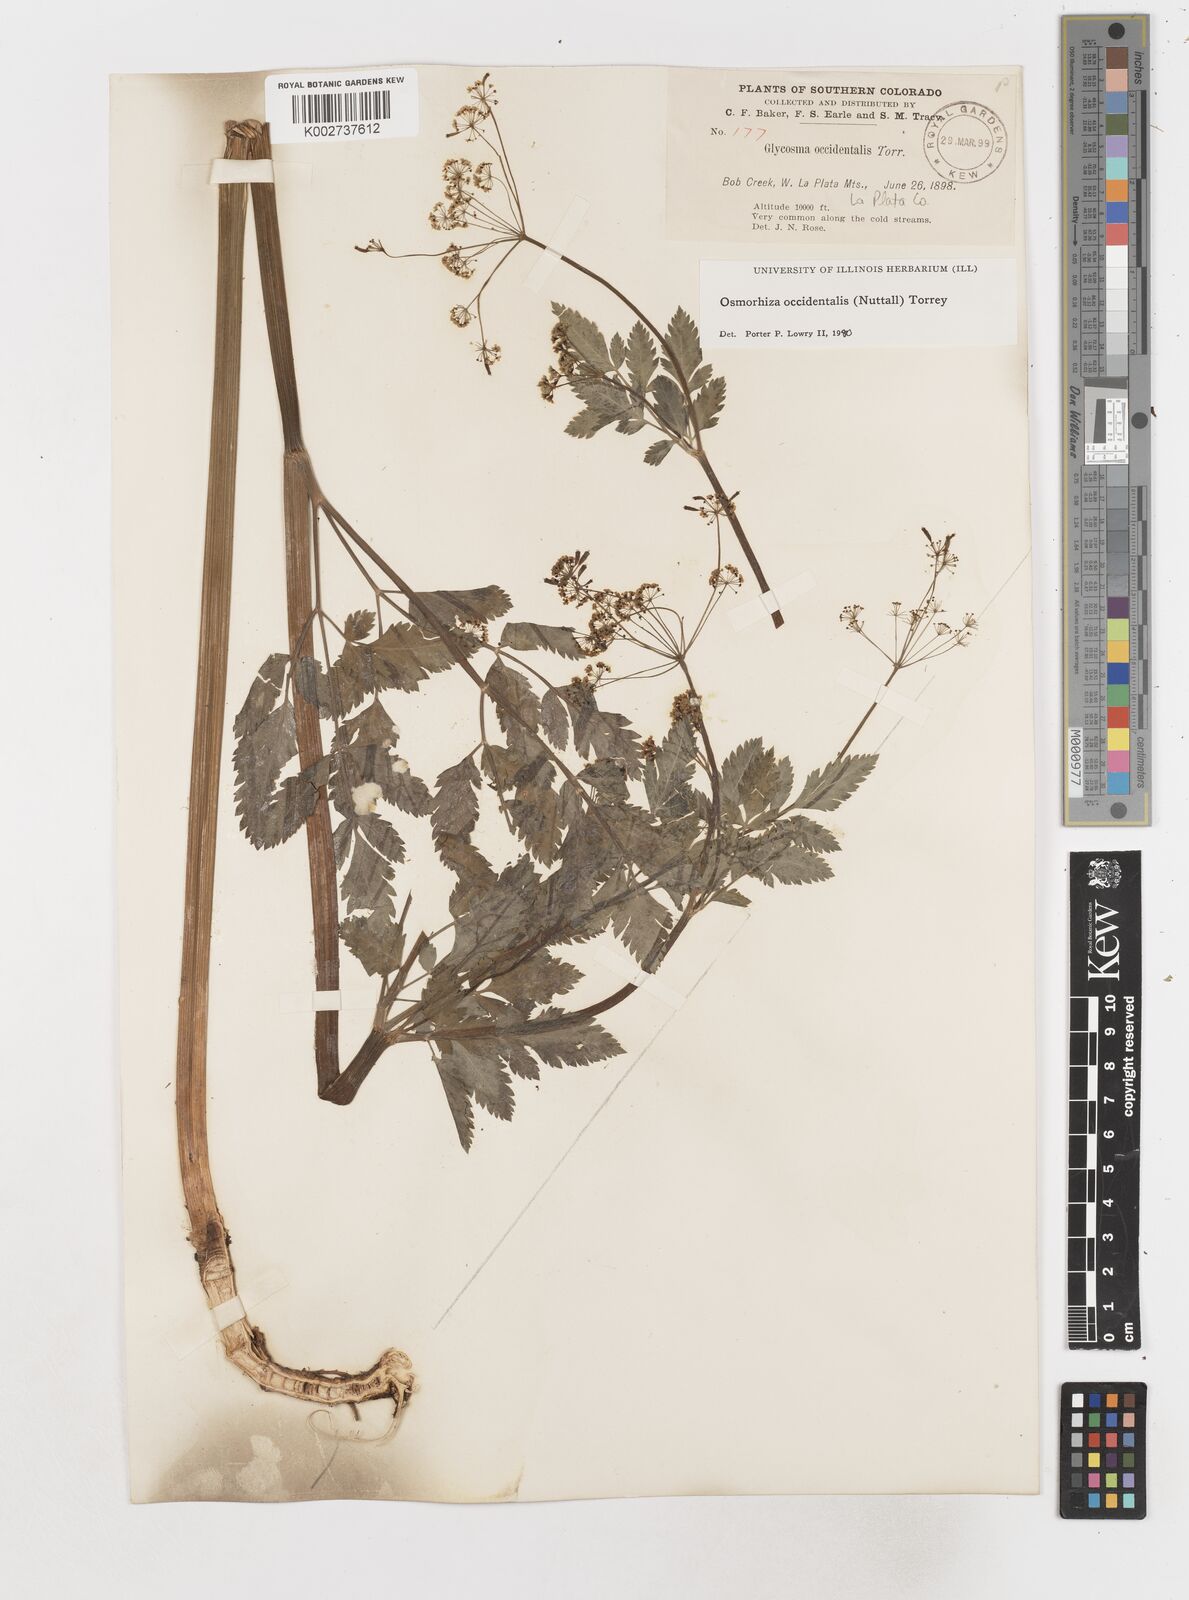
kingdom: Plantae
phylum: Tracheophyta
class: Magnoliopsida
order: Apiales
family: Apiaceae
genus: Osmorhiza
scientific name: Osmorhiza occidentalis
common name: Western sweet cicely
